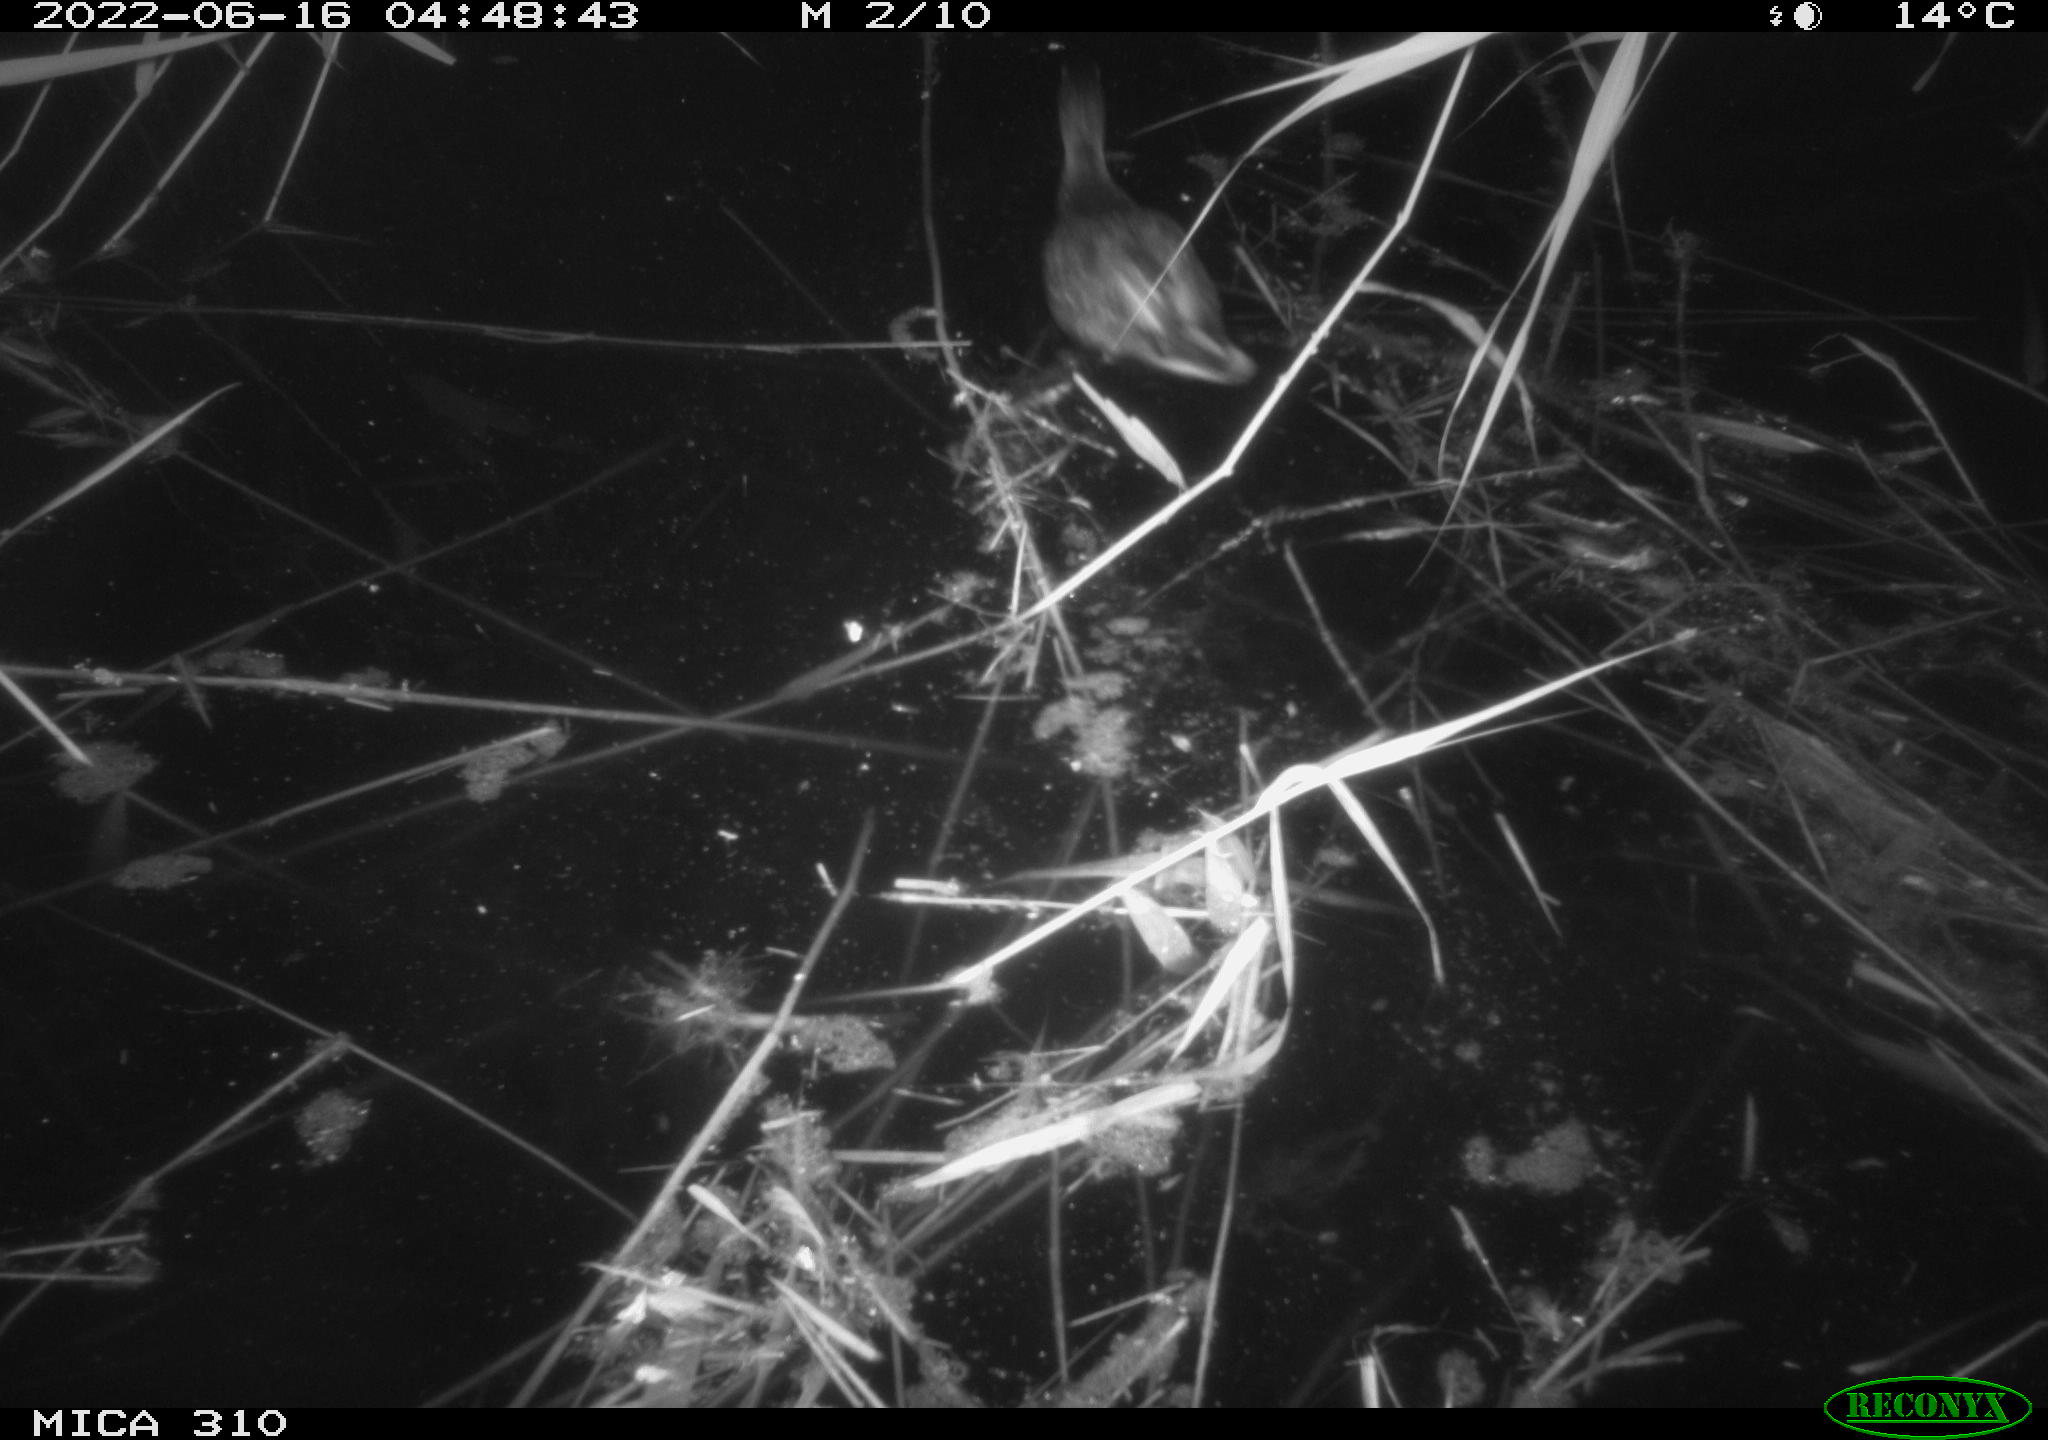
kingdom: Animalia
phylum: Chordata
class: Aves
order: Anseriformes
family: Anatidae
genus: Anas
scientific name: Anas platyrhynchos
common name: Mallard
